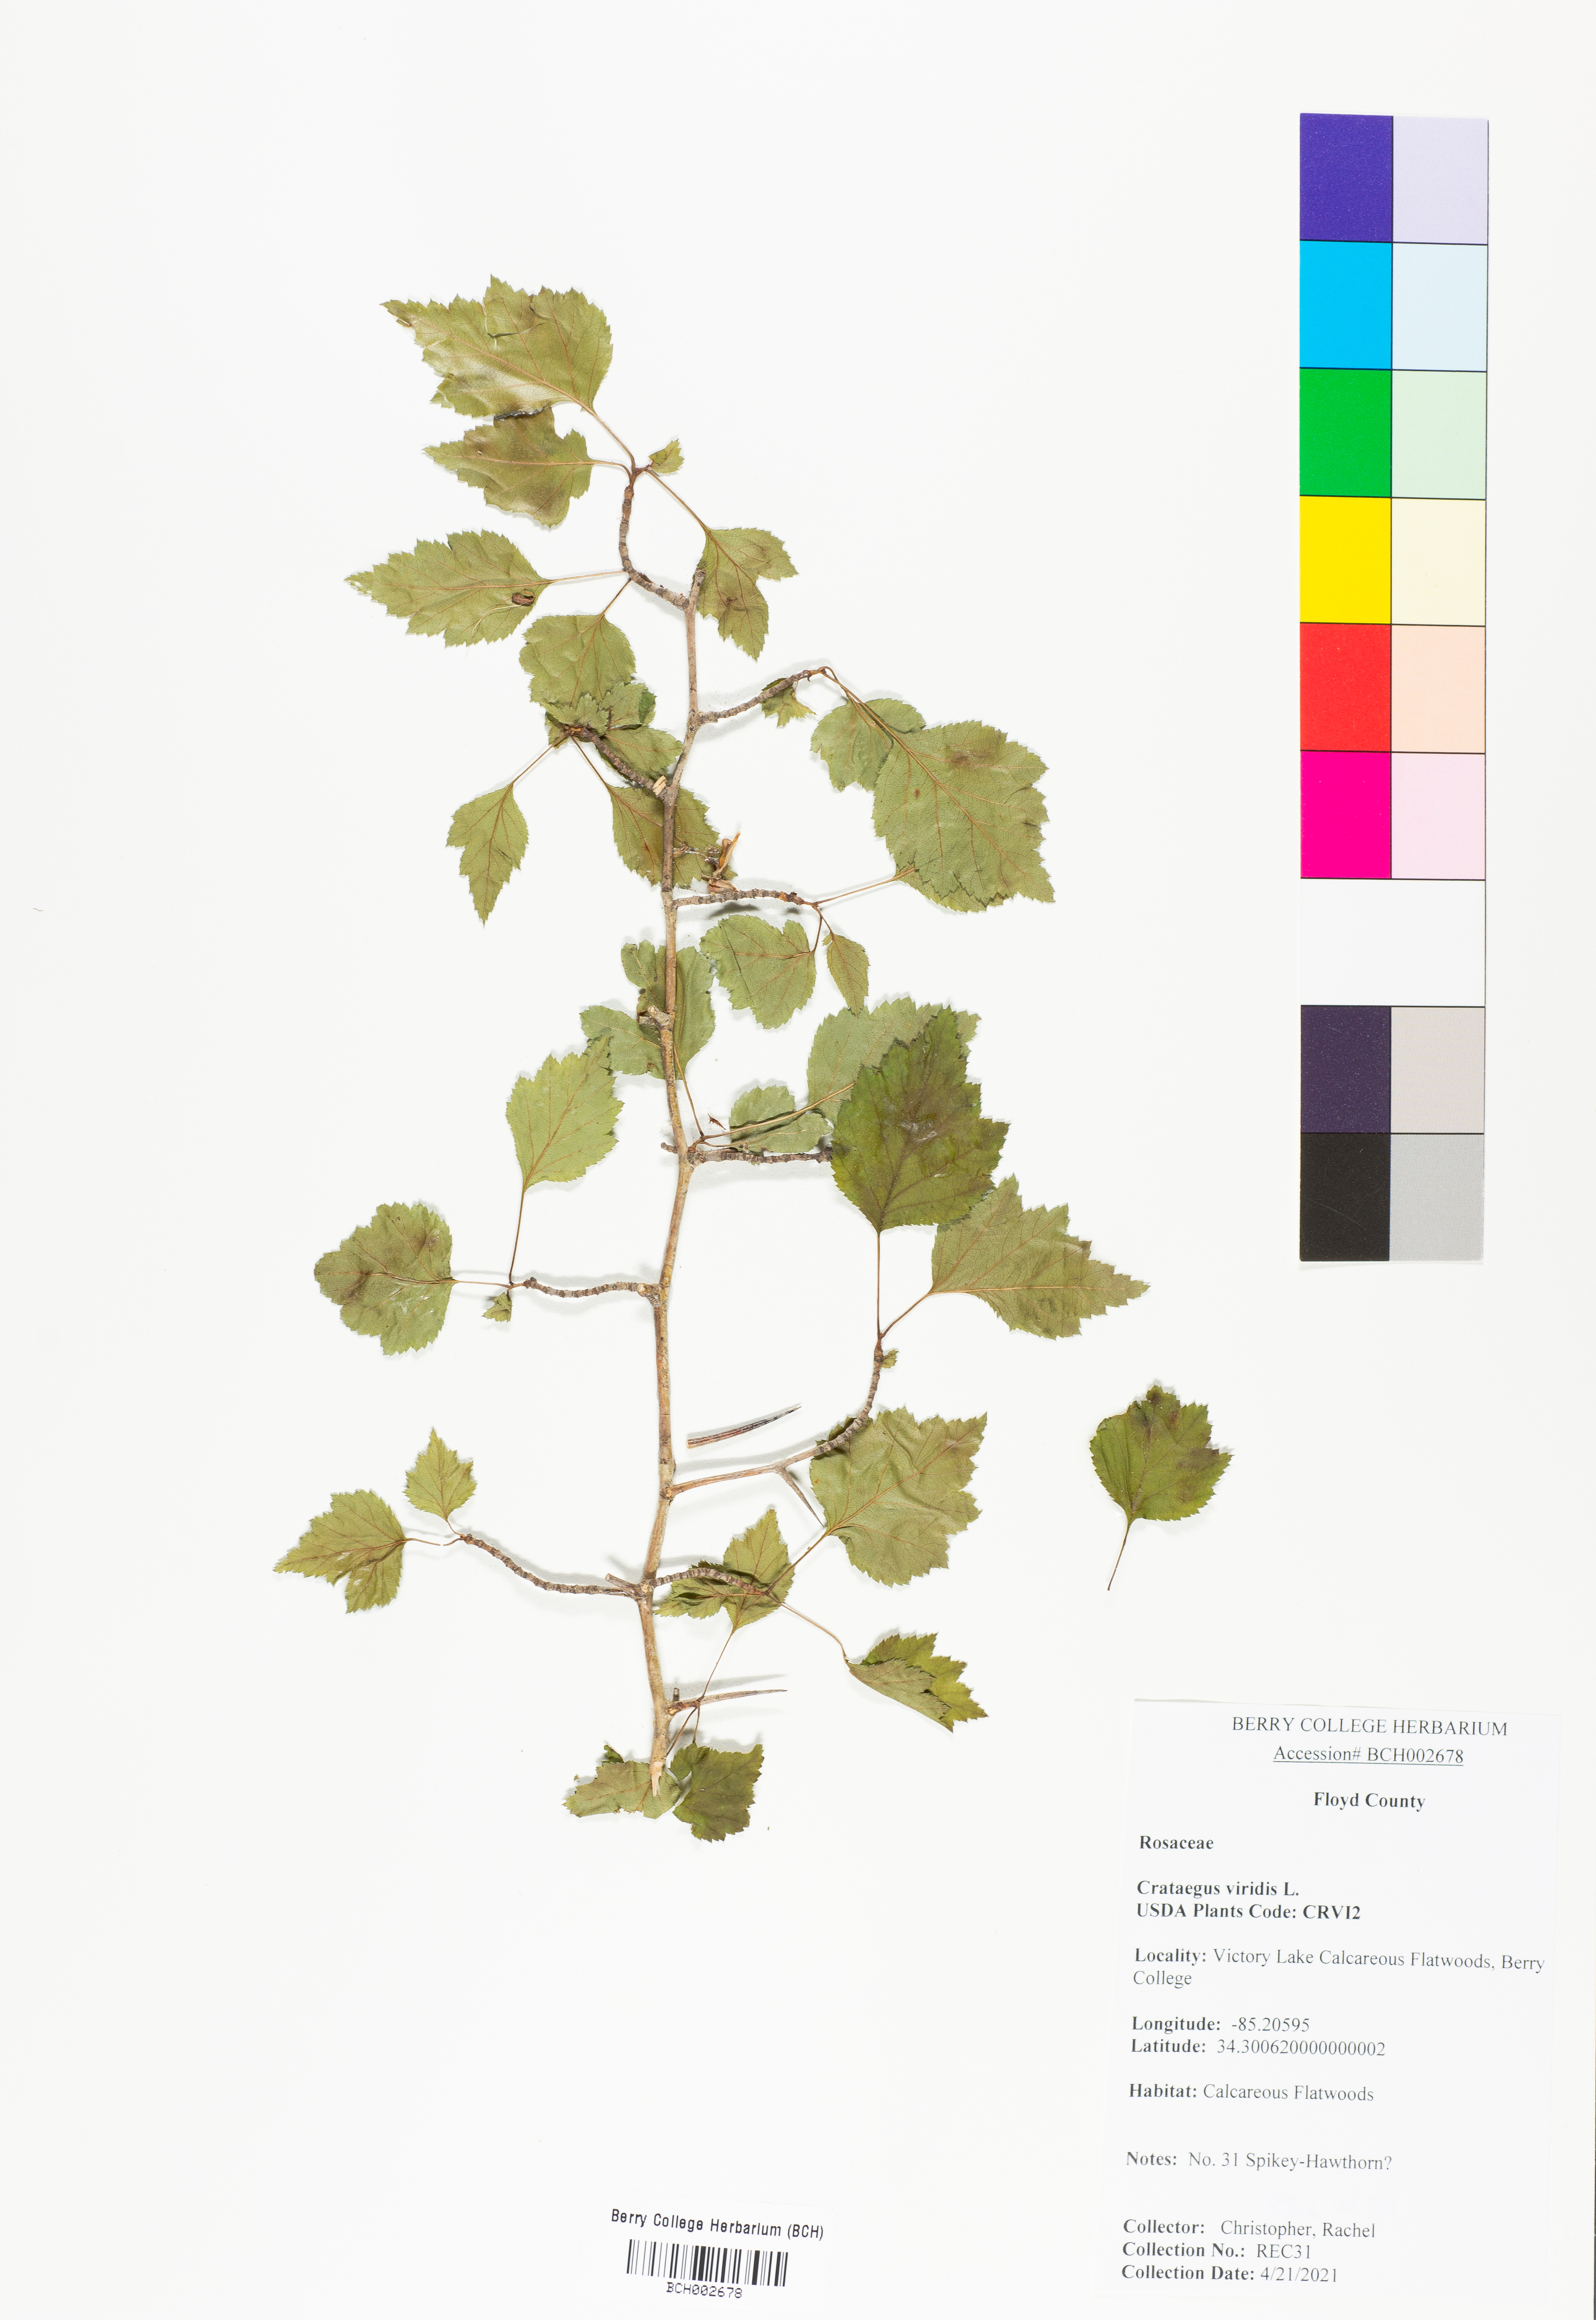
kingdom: Plantae
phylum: Tracheophyta
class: Magnoliopsida
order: Rosales
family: Rosaceae
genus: Crataegus
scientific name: Crataegus viridis
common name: Southernthorn
